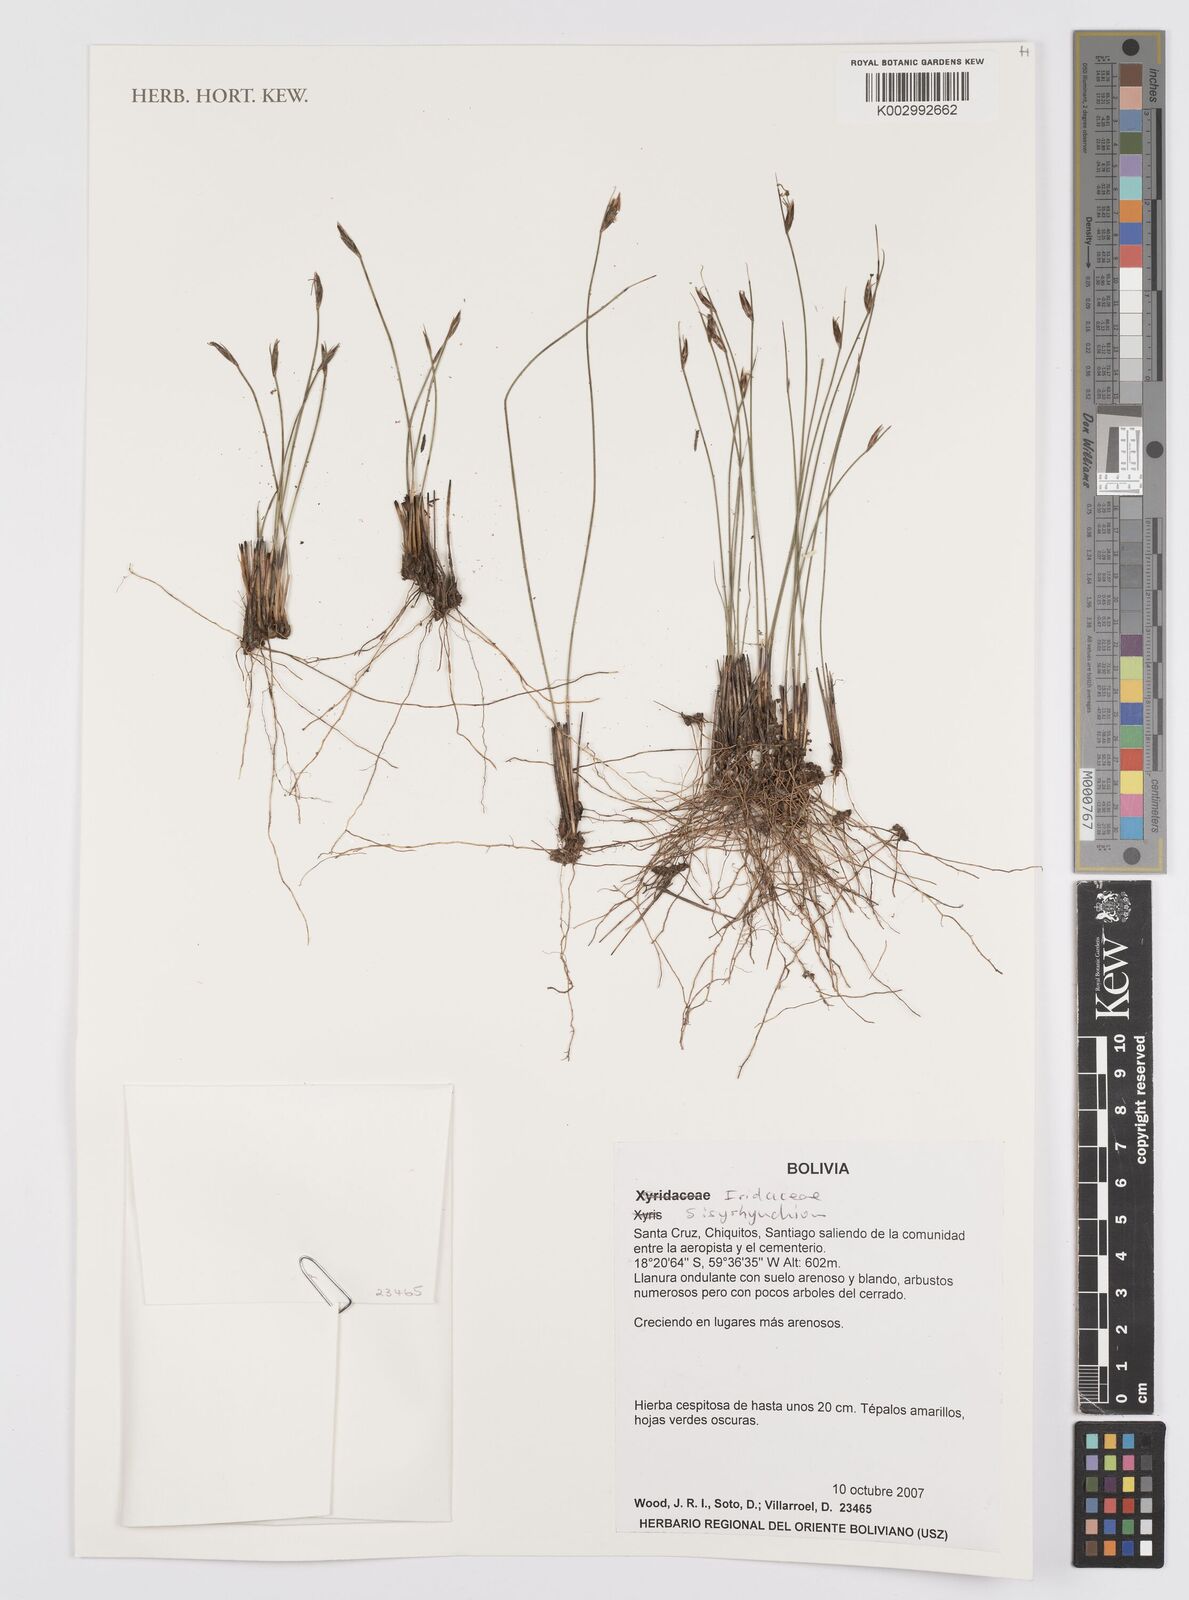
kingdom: Plantae
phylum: Tracheophyta
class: Liliopsida
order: Asparagales
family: Iridaceae
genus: Sisyrinchium
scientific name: Sisyrinchium
